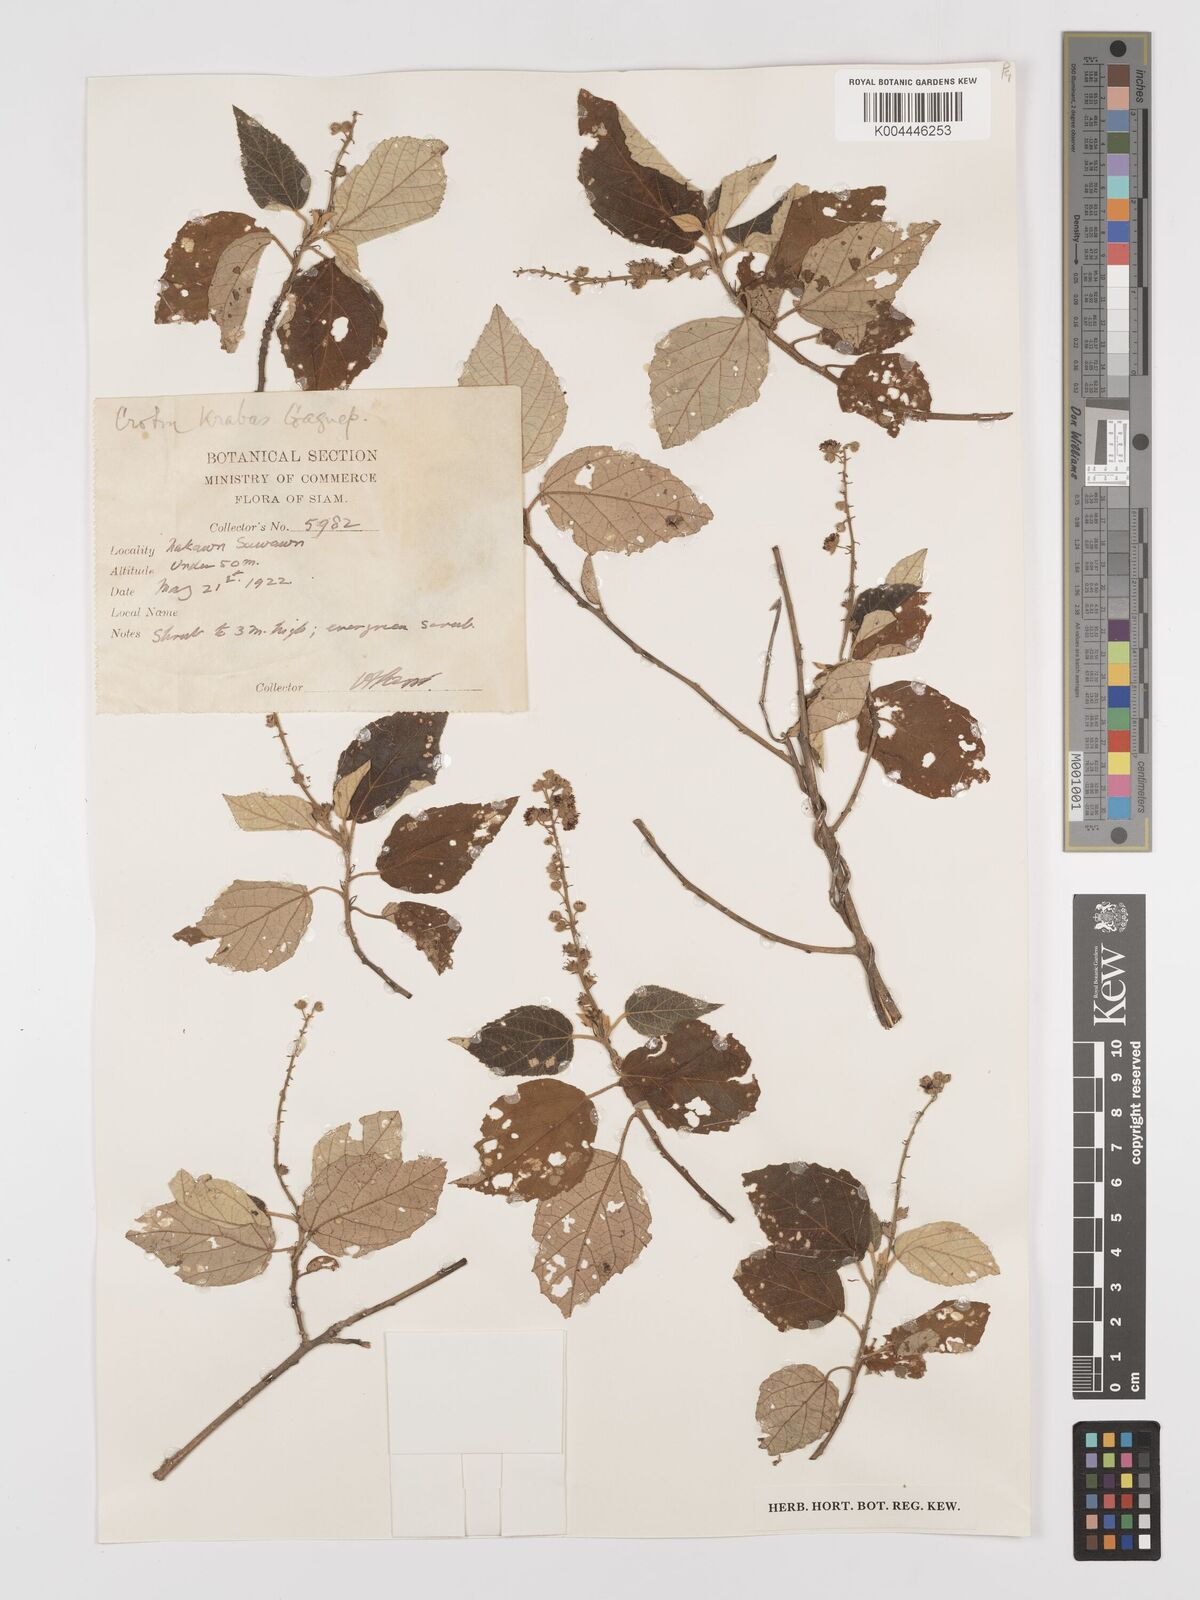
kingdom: Plantae
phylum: Tracheophyta
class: Magnoliopsida
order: Malpighiales
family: Euphorbiaceae
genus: Croton
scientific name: Croton krabas
